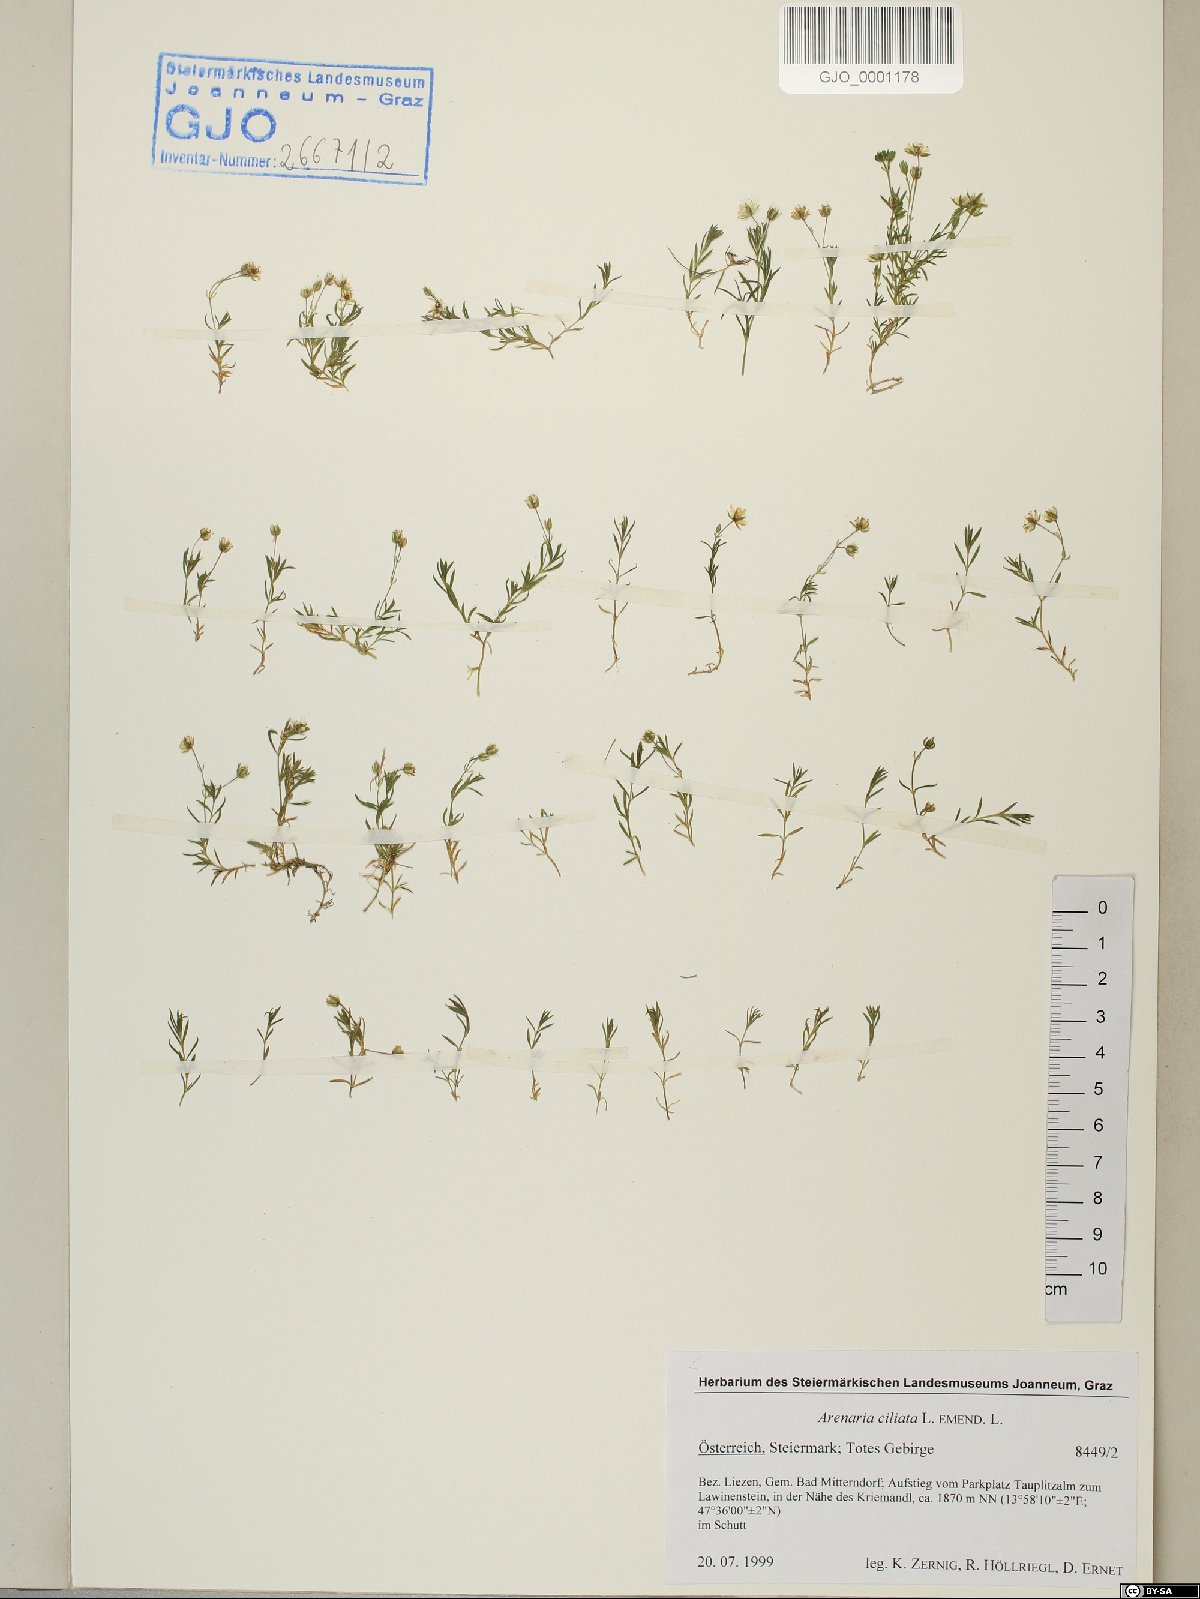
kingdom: Plantae
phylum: Tracheophyta
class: Magnoliopsida
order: Caryophyllales
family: Caryophyllaceae
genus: Arenaria
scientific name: Arenaria ciliata
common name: Fringed sandwort
